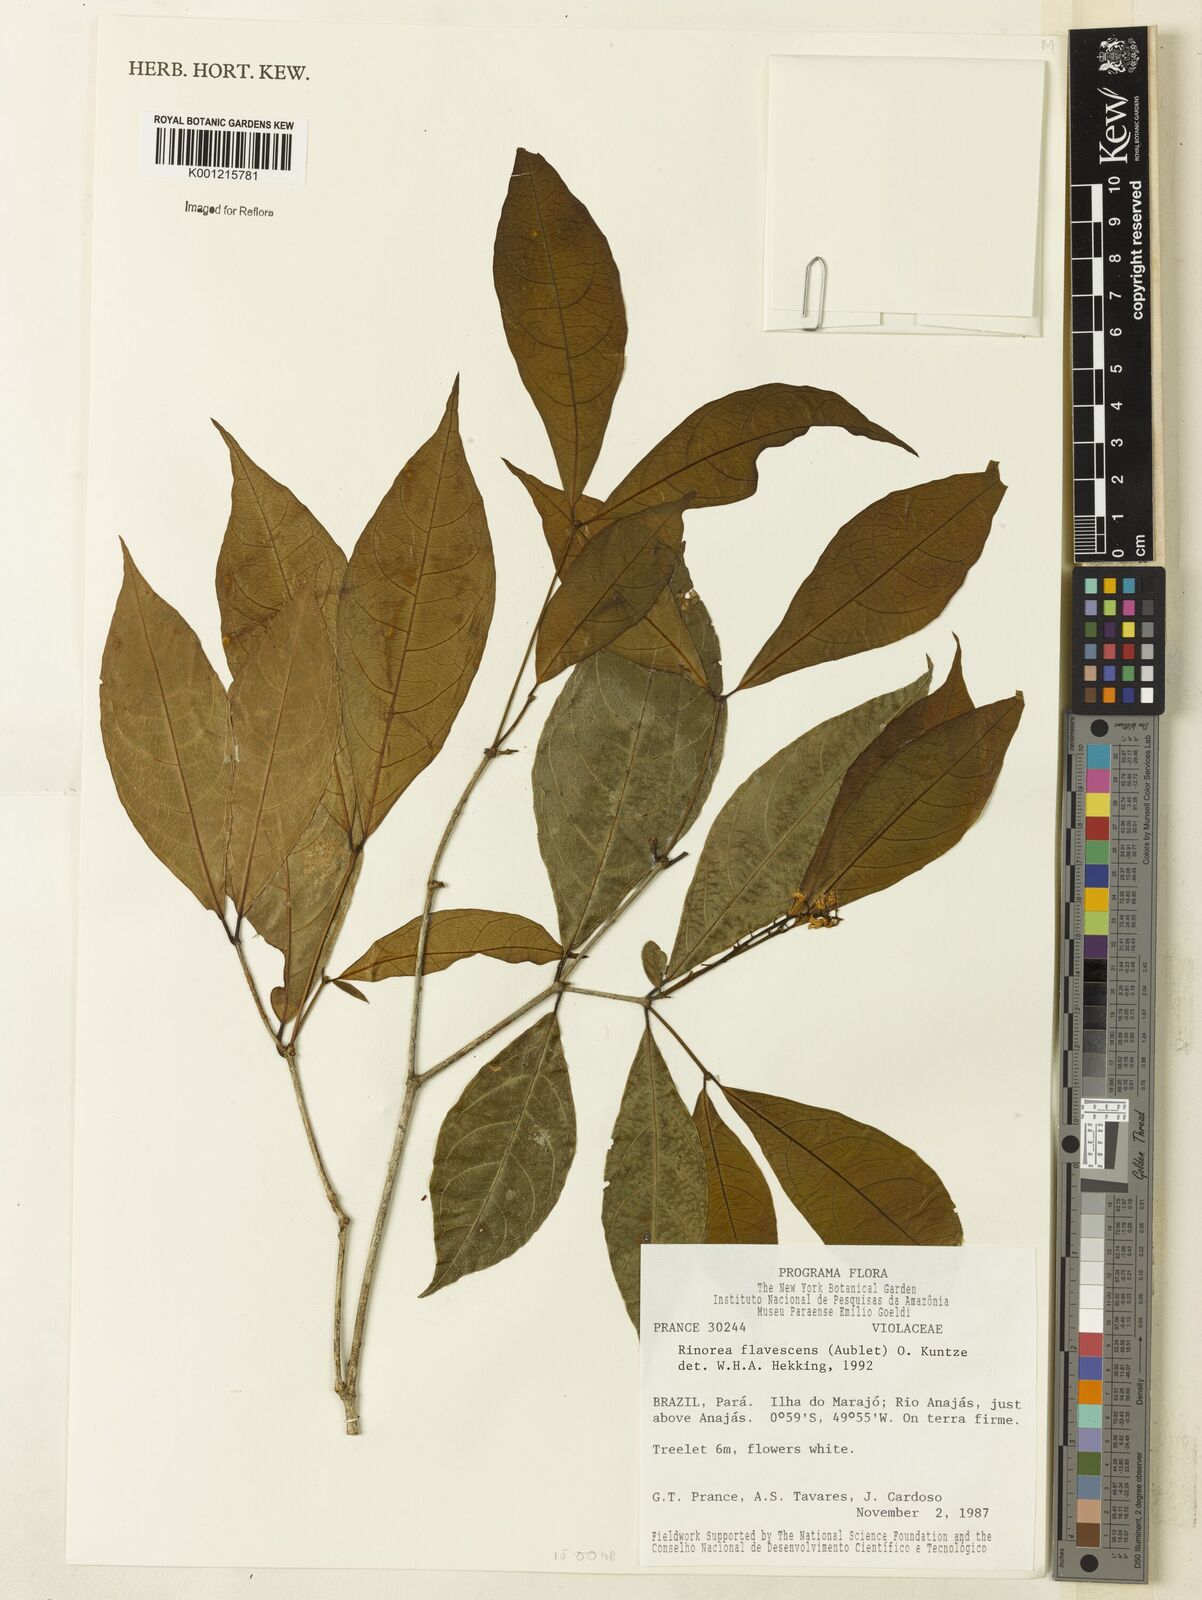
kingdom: Plantae
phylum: Tracheophyta
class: Magnoliopsida
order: Malpighiales
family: Violaceae
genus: Rinorea
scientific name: Rinorea flavescens
